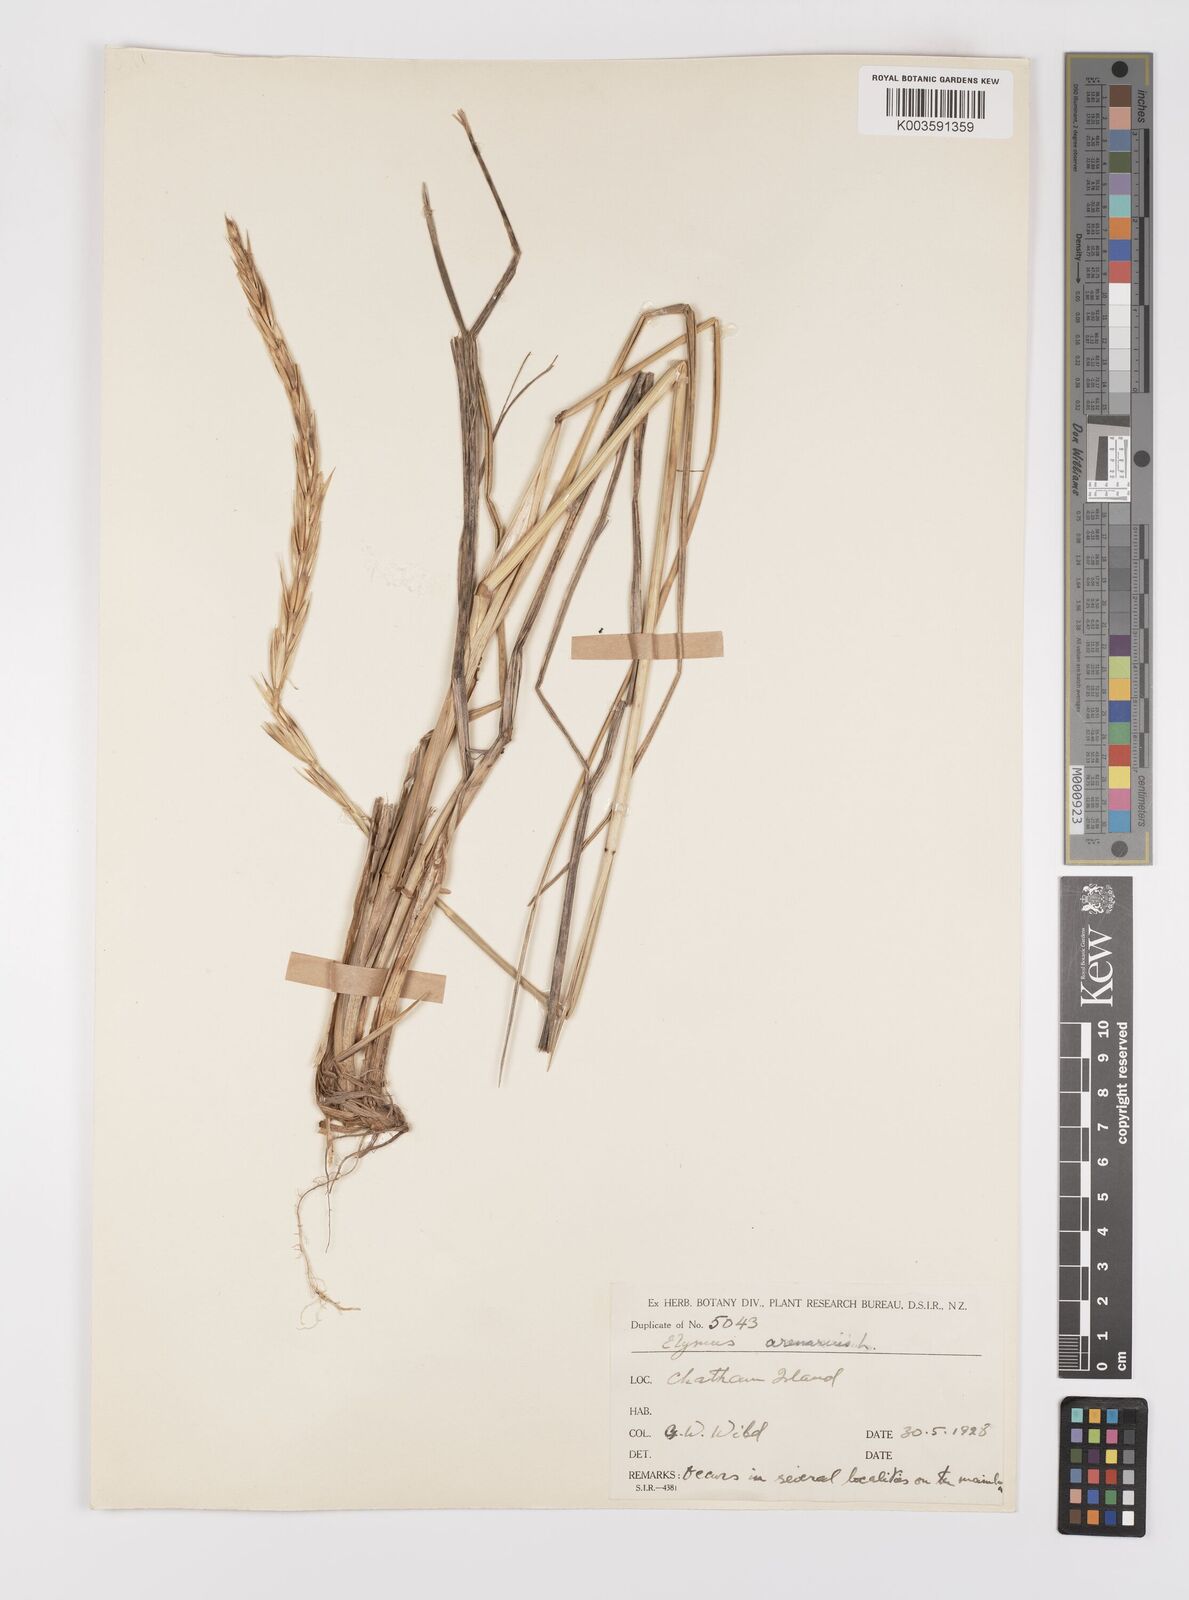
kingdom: Plantae
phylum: Tracheophyta
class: Liliopsida
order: Poales
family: Poaceae
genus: Leymus
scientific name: Leymus arenarius
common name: Lyme-grass
